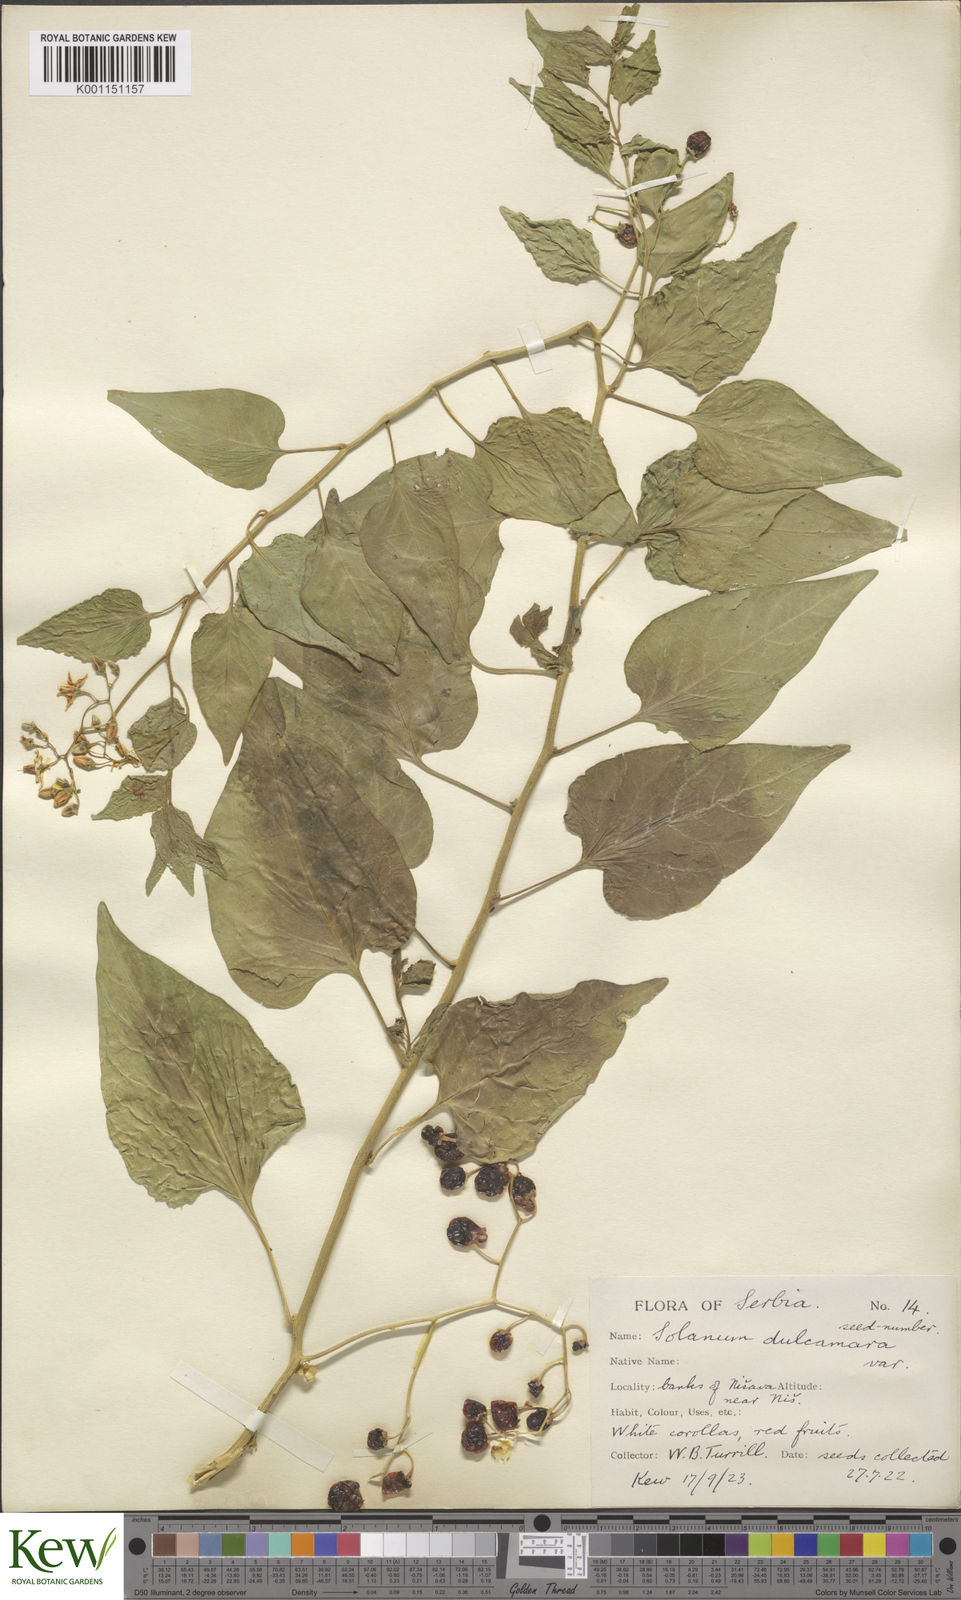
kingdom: Plantae
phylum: Tracheophyta
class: Magnoliopsida
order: Solanales
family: Solanaceae
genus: Solanum
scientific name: Solanum dulcamara
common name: Climbing nightshade
